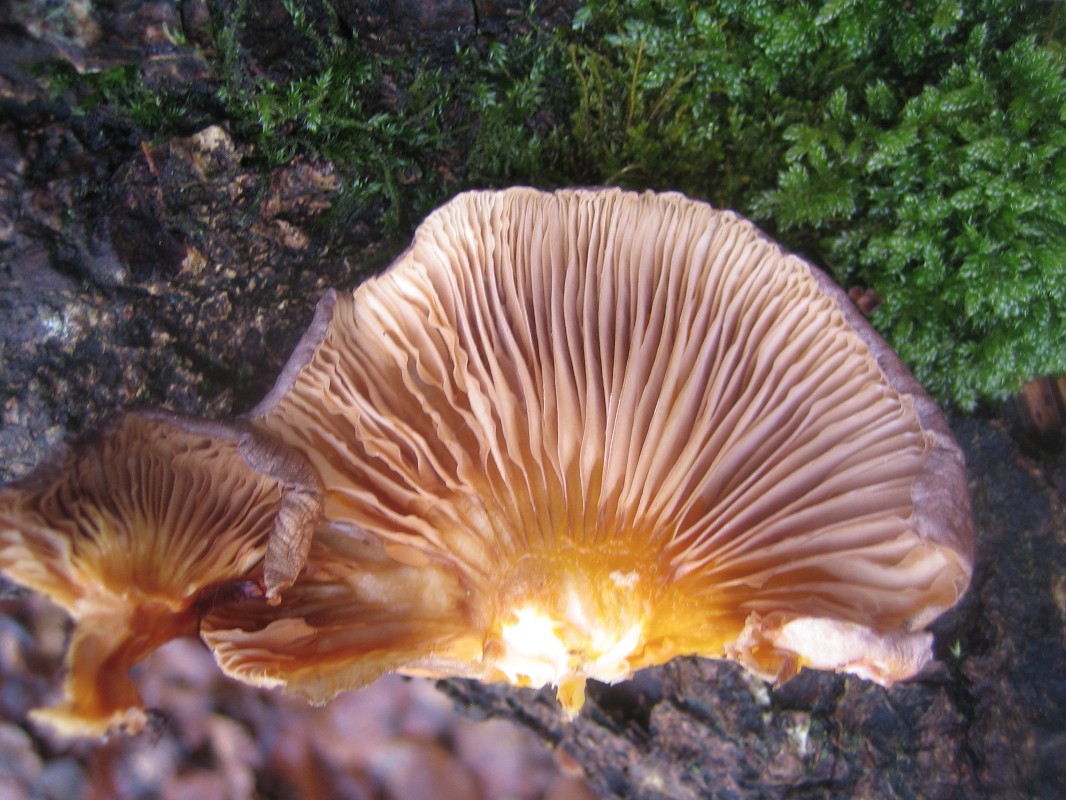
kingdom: Fungi
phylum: Basidiomycota
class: Agaricomycetes
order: Agaricales
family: Sarcomyxaceae
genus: Sarcomyxa
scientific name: Sarcomyxa serotina
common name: gummihat
